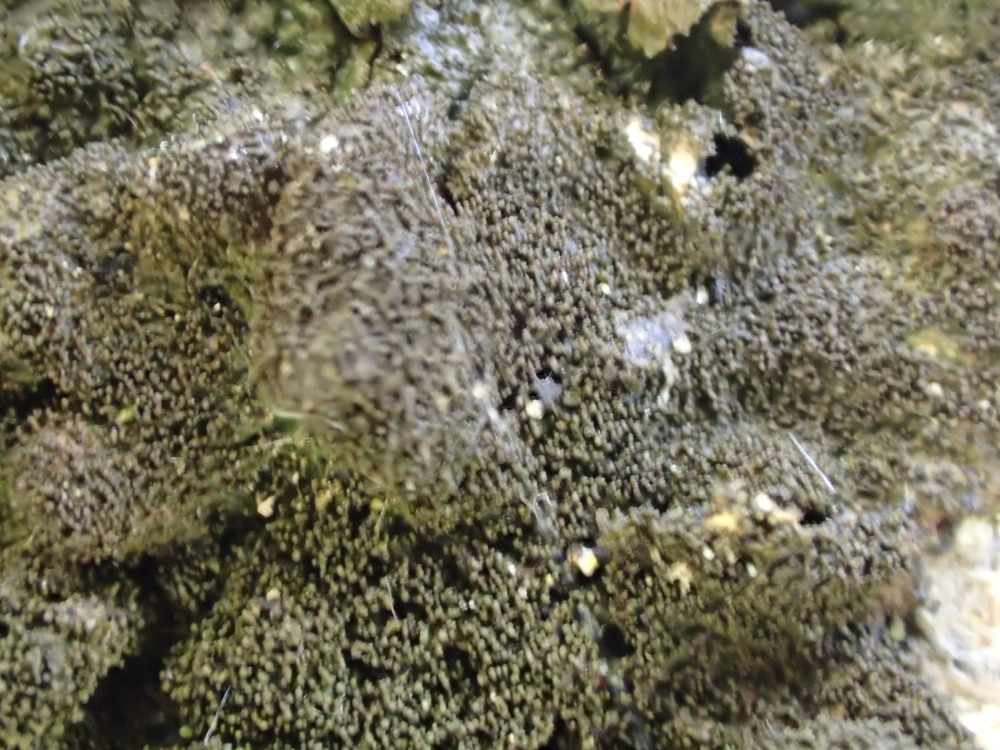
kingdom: Fungi
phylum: Ascomycota
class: Lecanoromycetes
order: Lecanorales
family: Parmeliaceae
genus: Melanelixia
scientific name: Melanelixia fuliginosa
